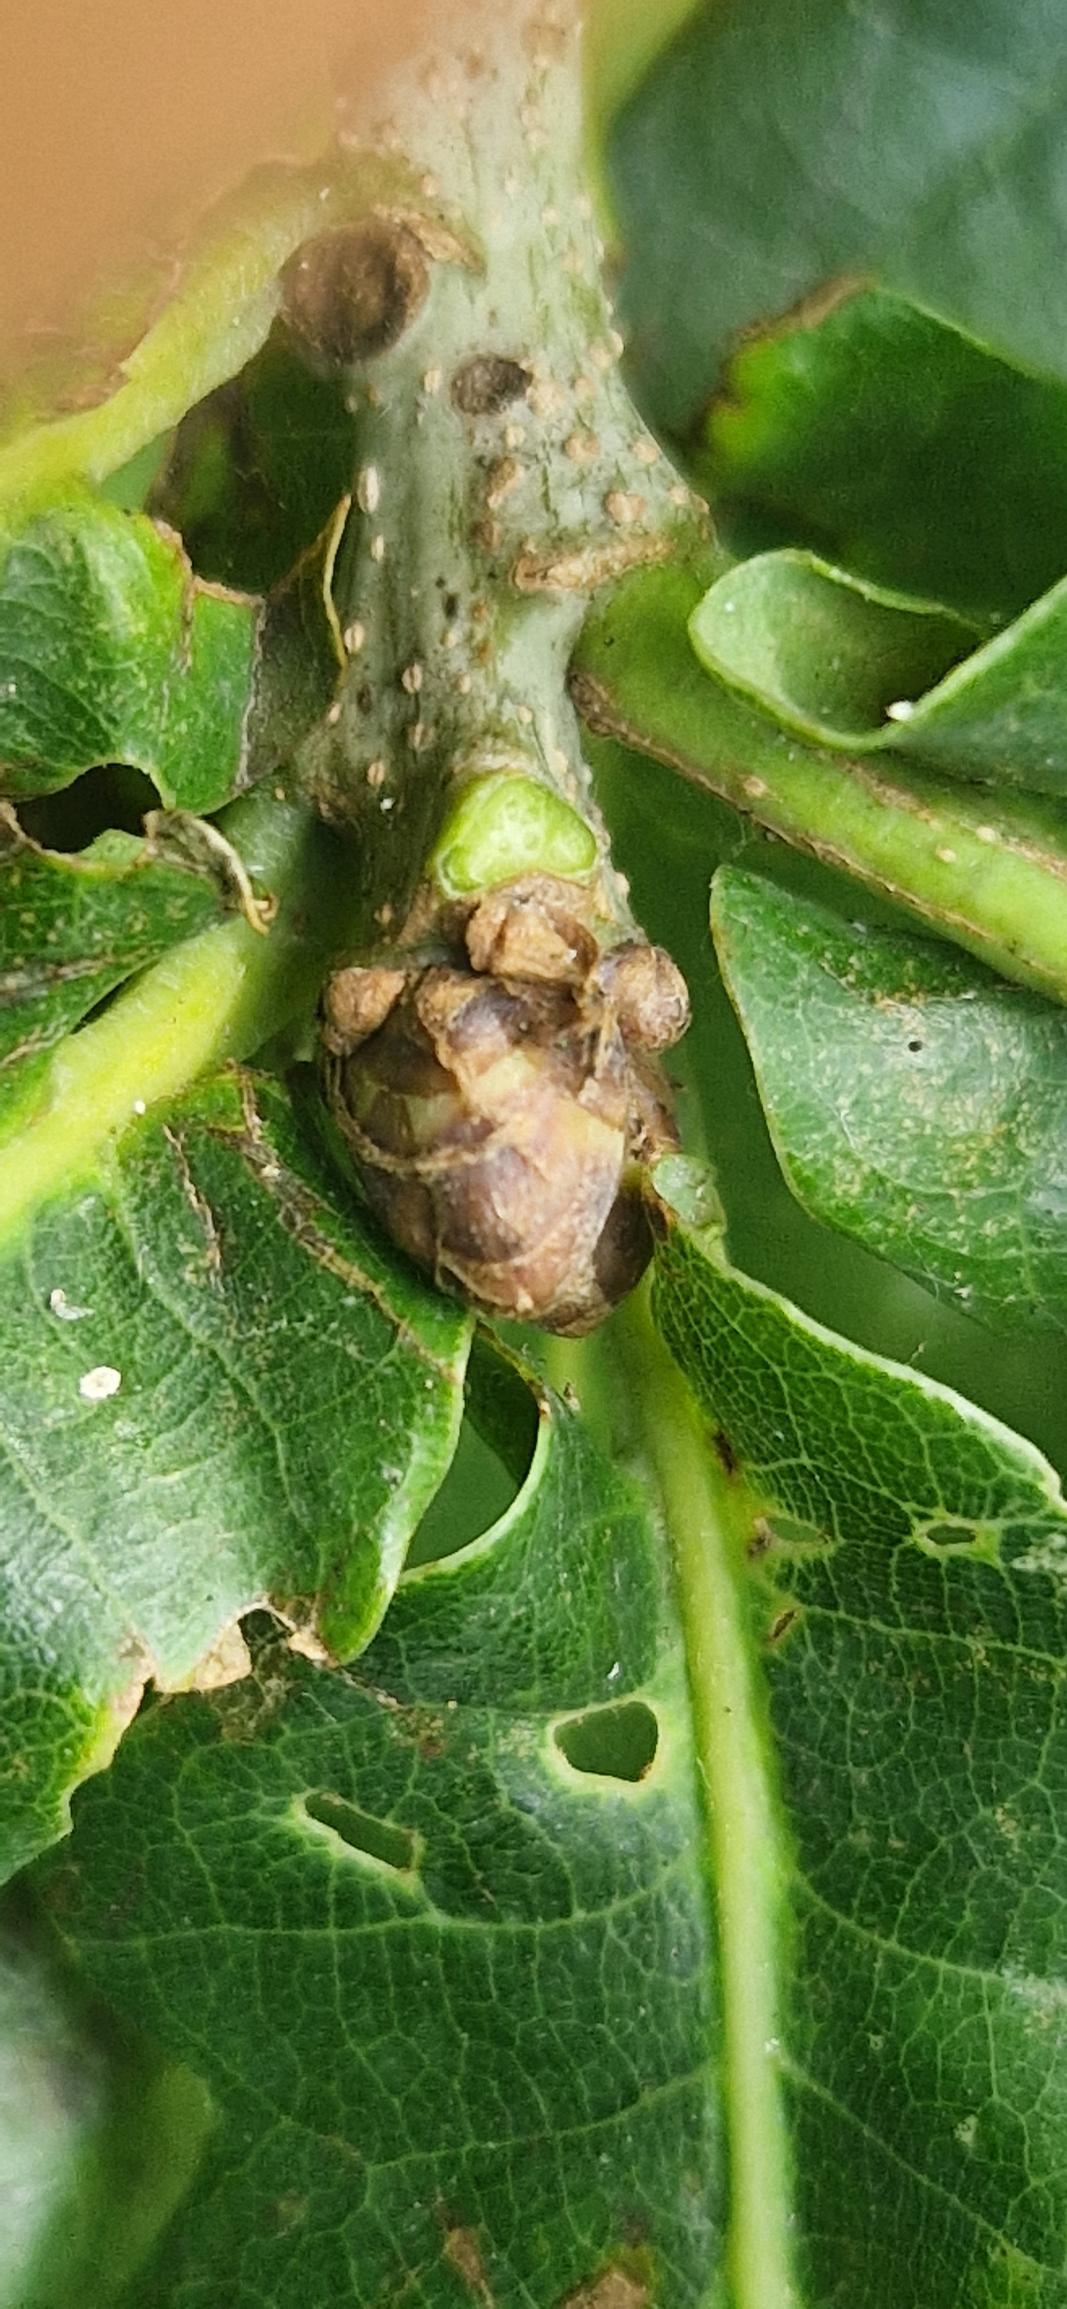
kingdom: Plantae
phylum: Tracheophyta
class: Magnoliopsida
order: Fagales
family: Fagaceae
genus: Quercus
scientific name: Quercus robur
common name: Stilk-eg/almindelig eg
